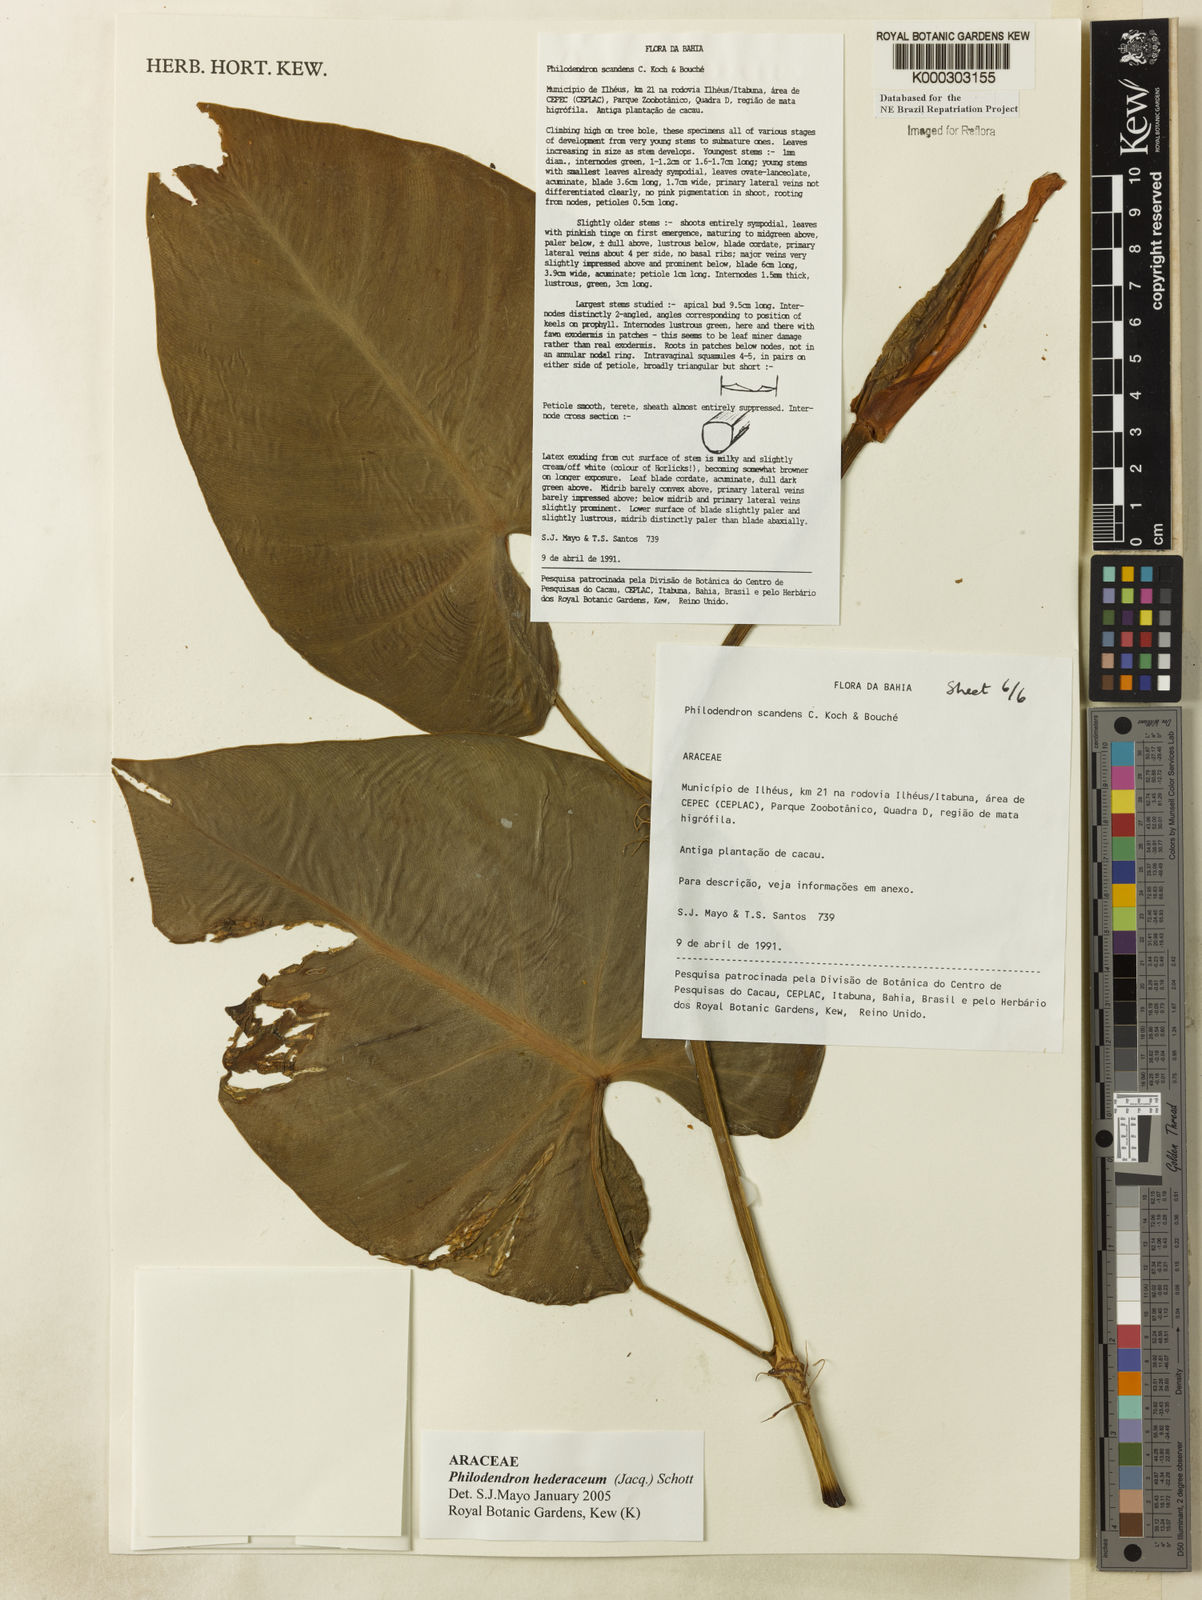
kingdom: Plantae
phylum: Tracheophyta
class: Liliopsida
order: Alismatales
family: Araceae
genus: Philodendron
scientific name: Philodendron hederaceum
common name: Vilevine
